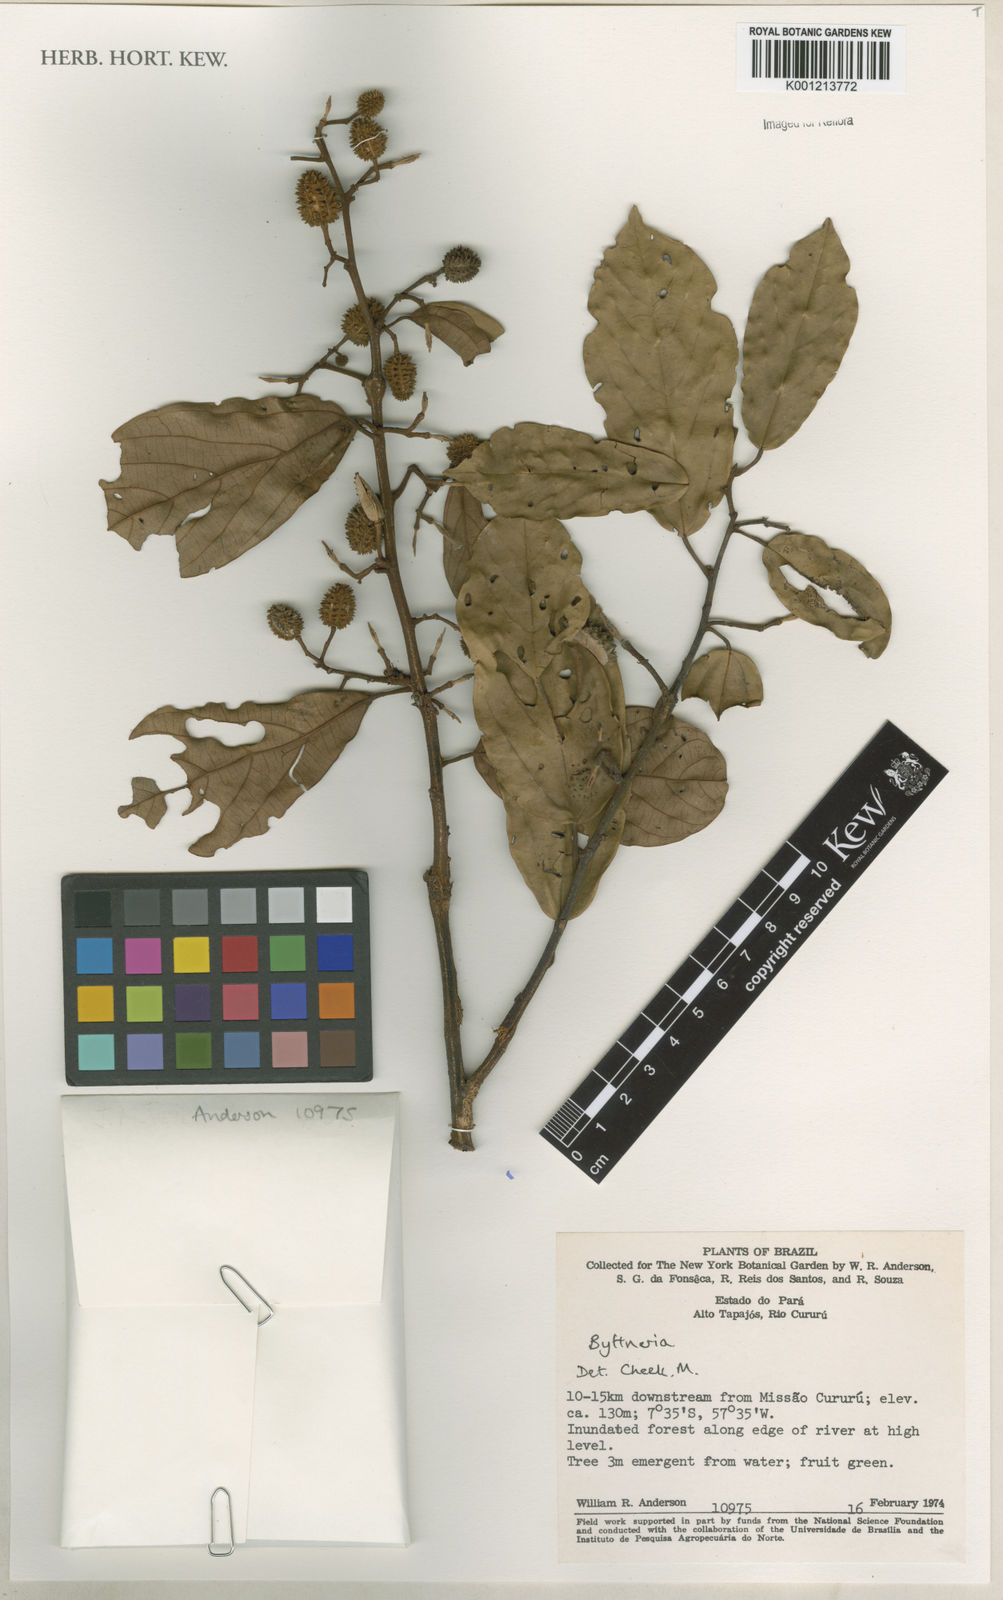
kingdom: Plantae
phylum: Tracheophyta
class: Magnoliopsida
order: Malvales
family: Malvaceae
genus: Byttneria
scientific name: Byttneria
